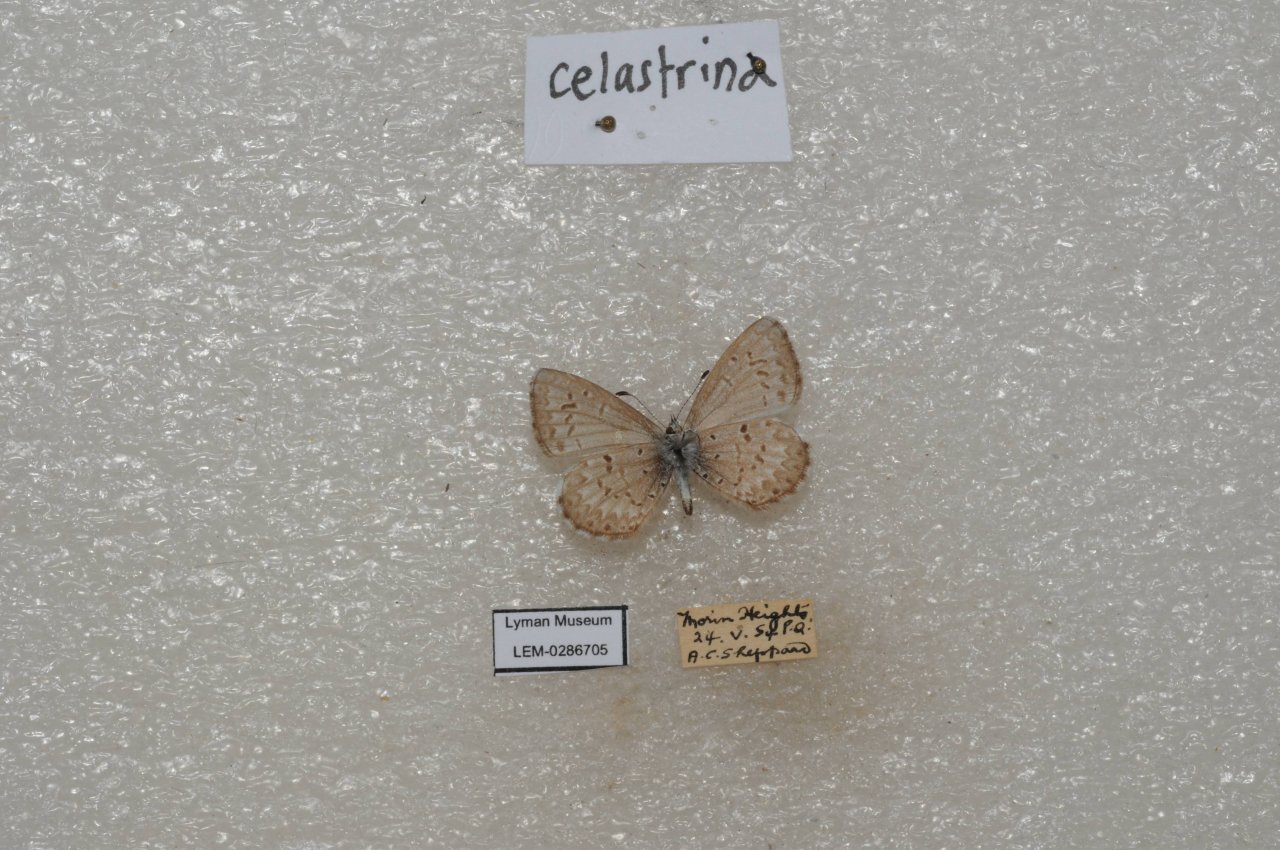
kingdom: Animalia
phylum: Arthropoda
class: Insecta
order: Lepidoptera
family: Lycaenidae
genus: Celastrina
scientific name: Celastrina lucia
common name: Northern Spring Azure
